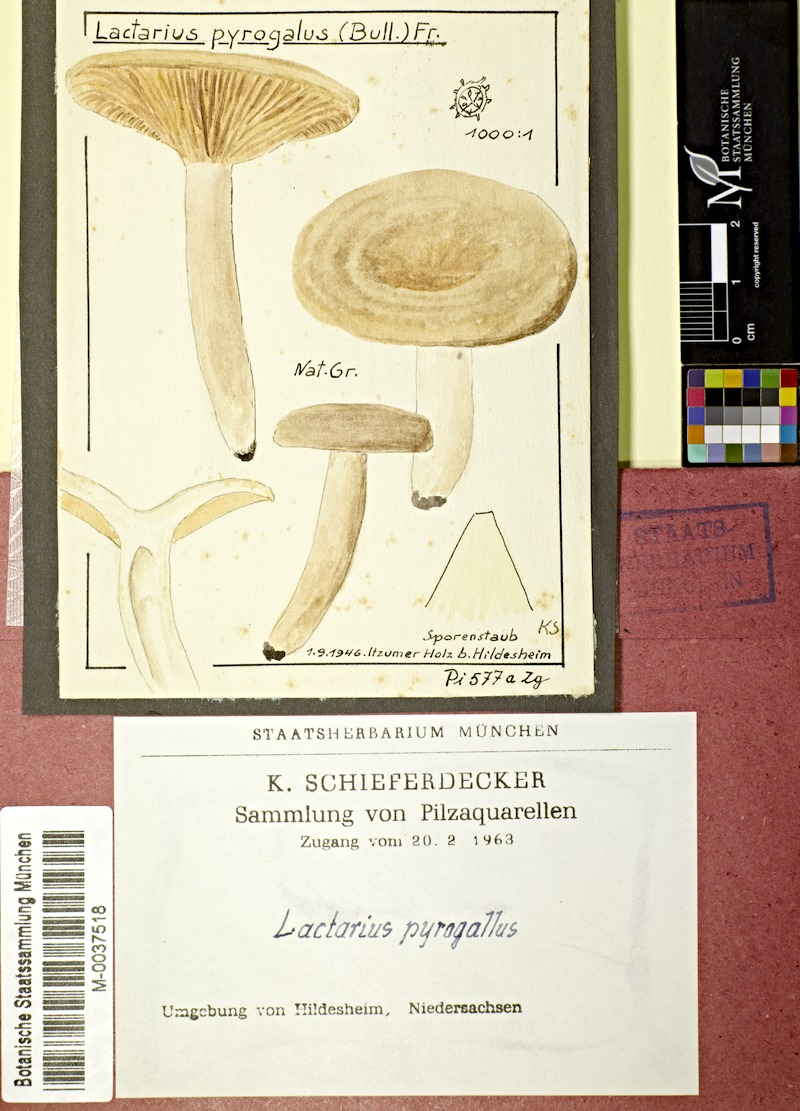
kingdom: Fungi
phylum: Basidiomycota
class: Agaricomycetes
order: Russulales
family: Russulaceae
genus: Lactarius
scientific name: Lactarius pyrogalus
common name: Fiery milkcap
